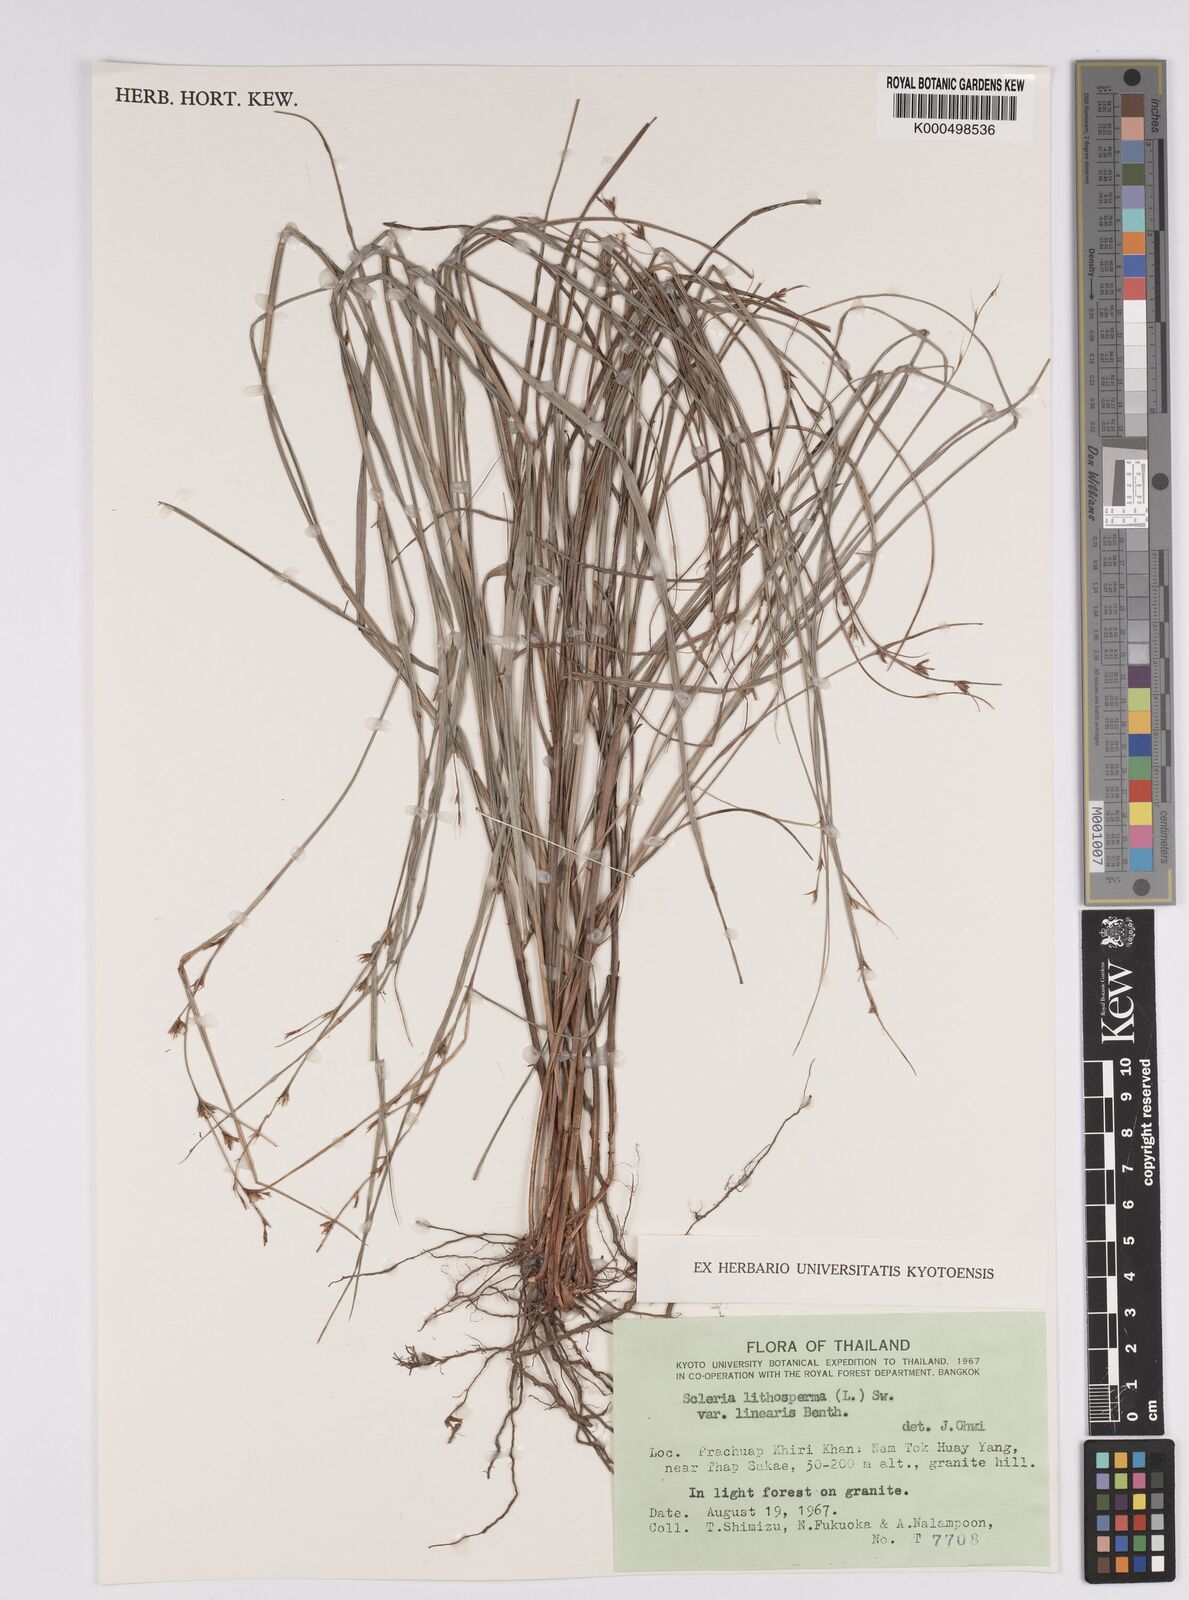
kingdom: Plantae
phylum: Tracheophyta
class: Liliopsida
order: Poales
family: Cyperaceae
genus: Scleria
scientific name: Scleria lithosperma
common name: Florida keys nut-rush
